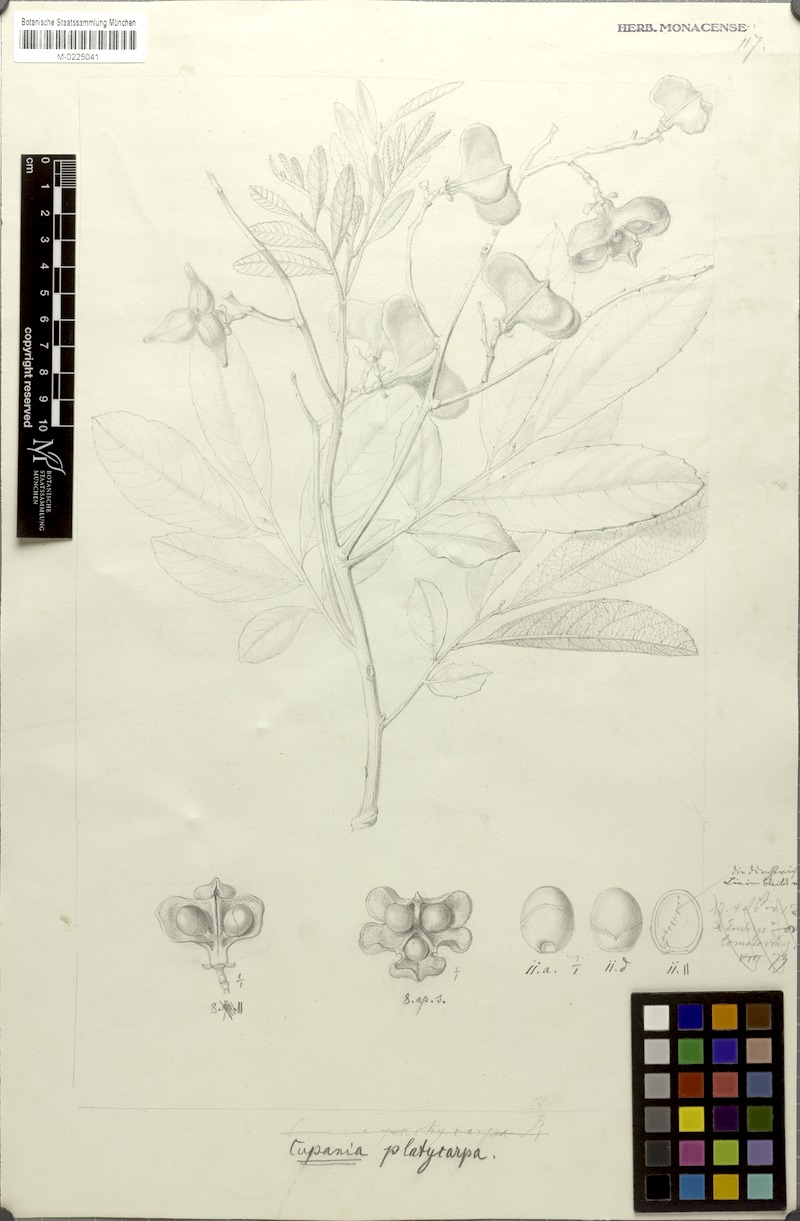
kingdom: Plantae
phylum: Tracheophyta
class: Magnoliopsida
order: Sapindales
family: Sapindaceae
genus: Cupania
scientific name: Cupania platycarpa
